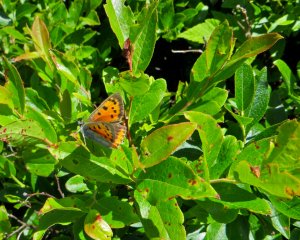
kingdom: Animalia
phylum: Arthropoda
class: Insecta
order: Lepidoptera
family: Lycaenidae
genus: Lycaena
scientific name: Lycaena phlaeas
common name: American Copper
